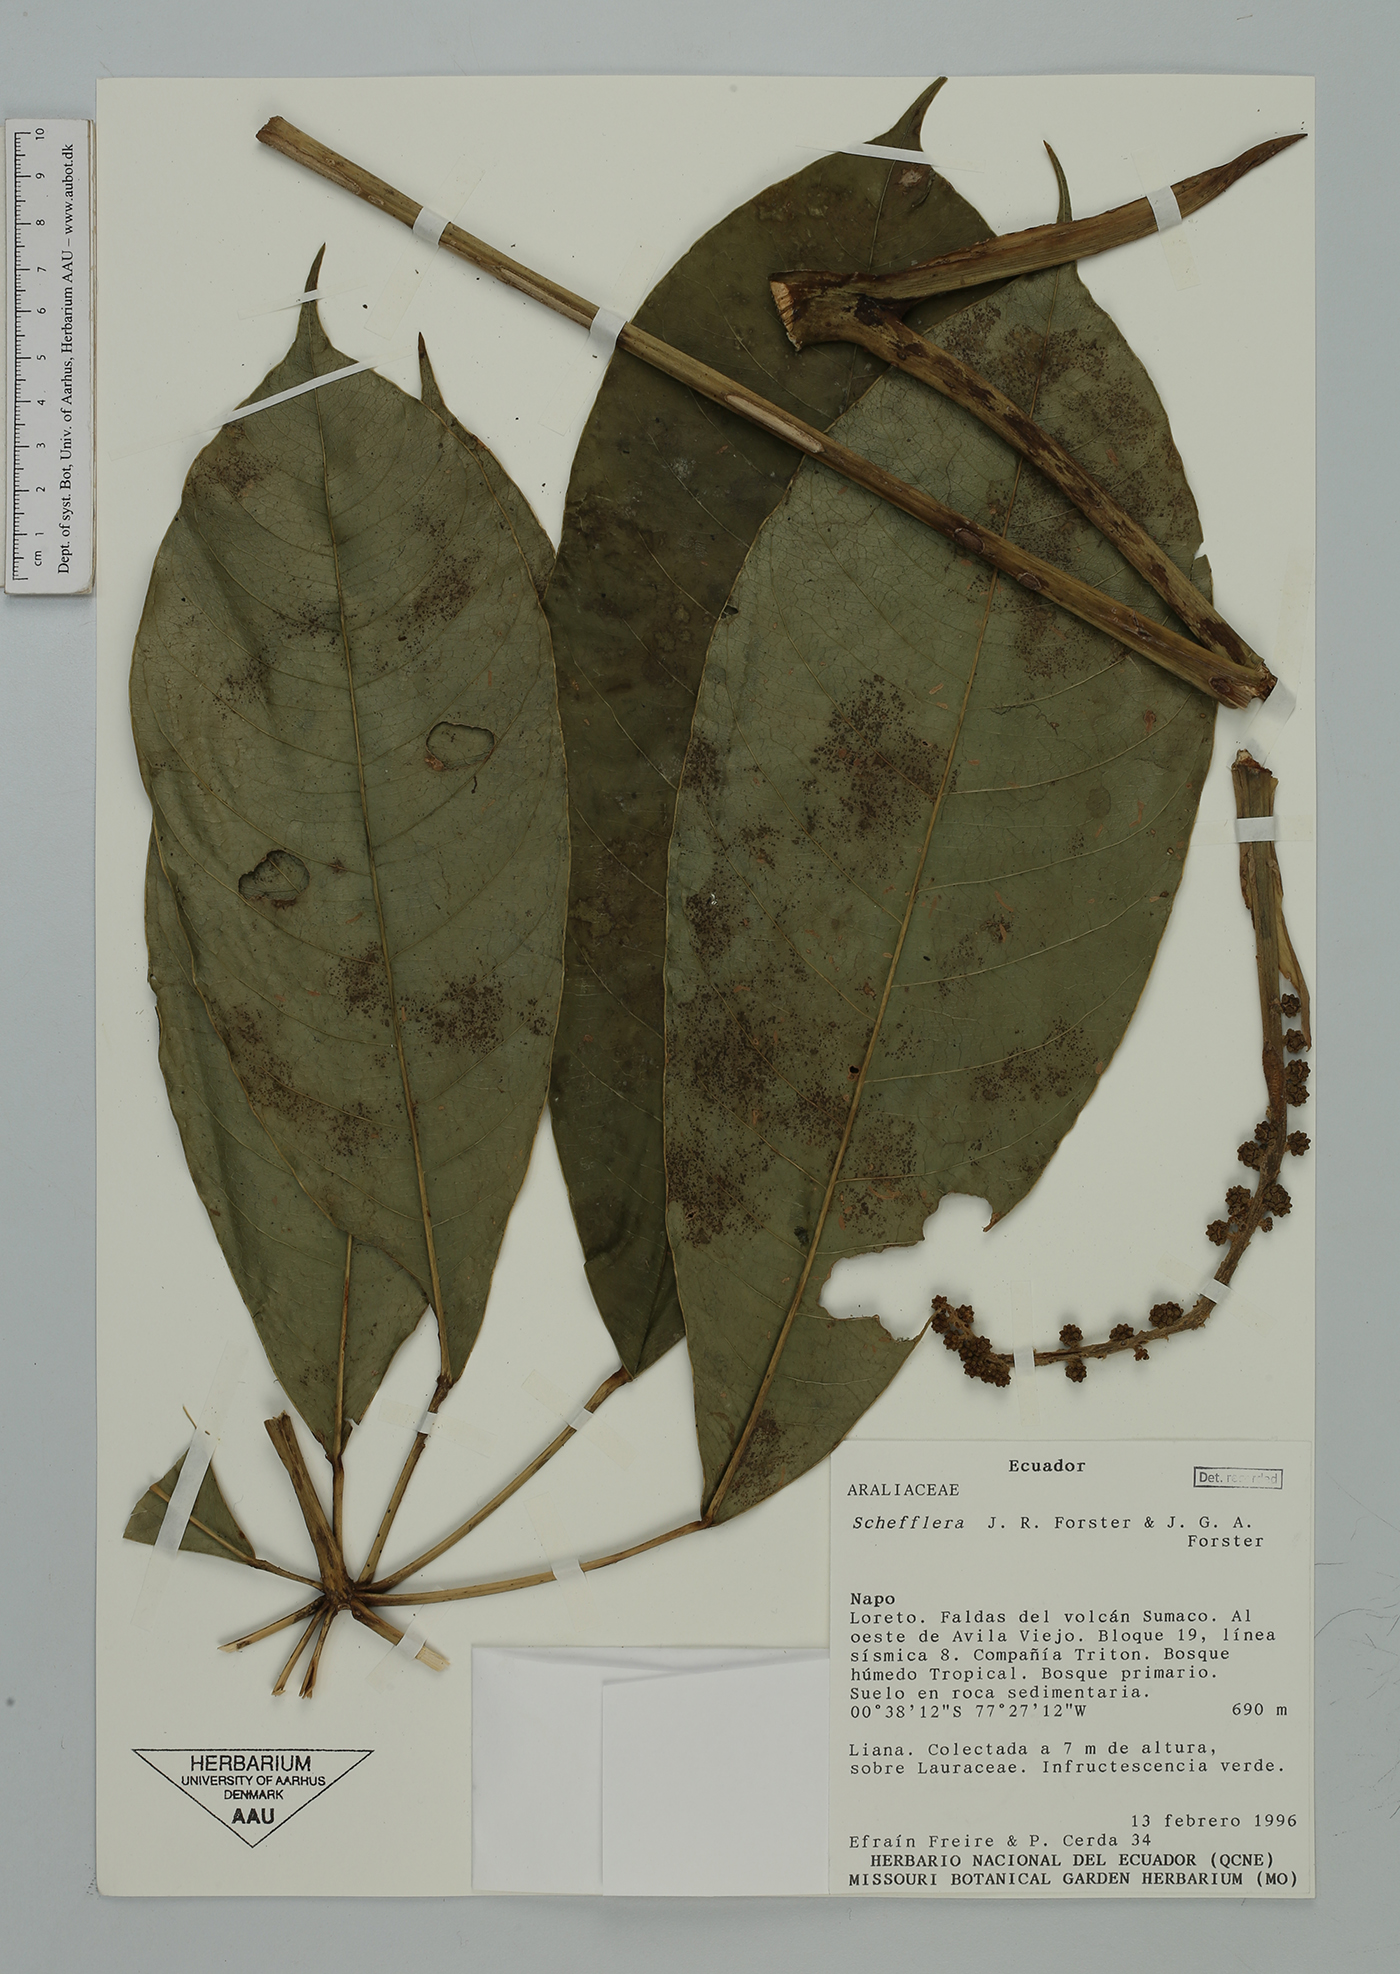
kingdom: Plantae
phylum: Tracheophyta
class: Magnoliopsida
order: Apiales
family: Araliaceae
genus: Sciodaphyllum
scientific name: Sciodaphyllum dielsii
